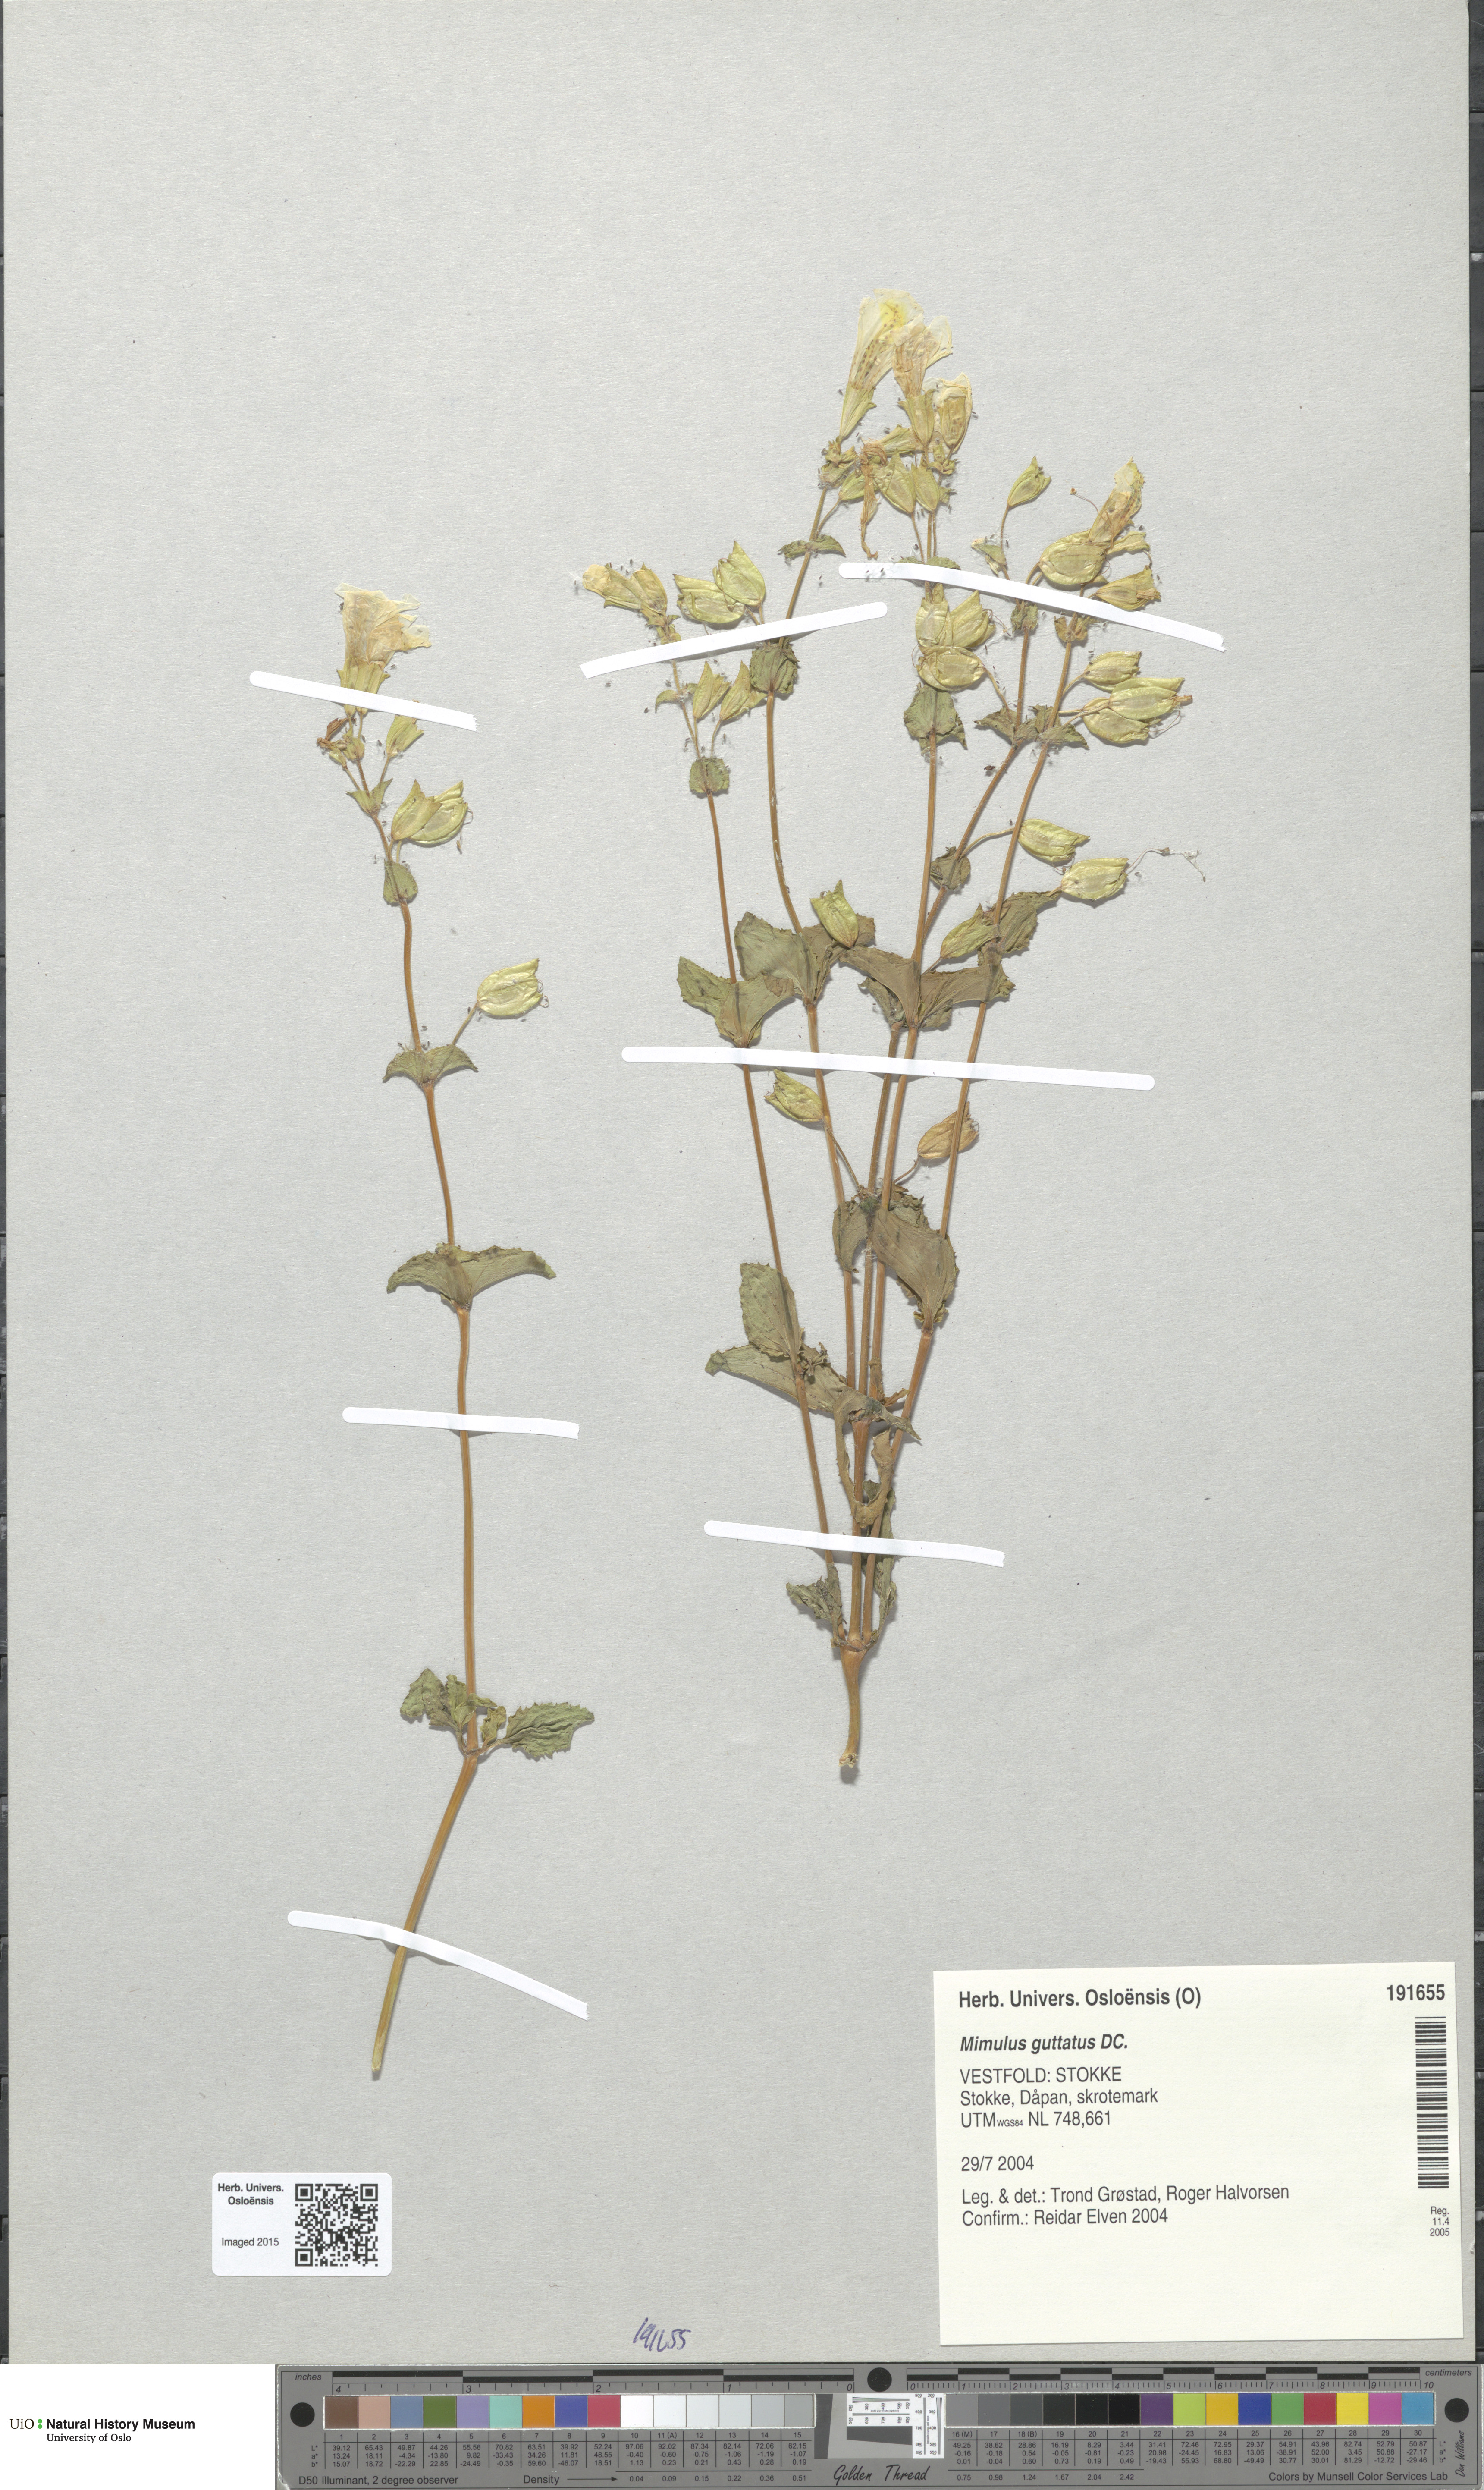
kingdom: Plantae
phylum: Tracheophyta
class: Magnoliopsida
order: Lamiales
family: Phrymaceae
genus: Erythranthe
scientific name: Erythranthe guttata
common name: Monkeyflower
